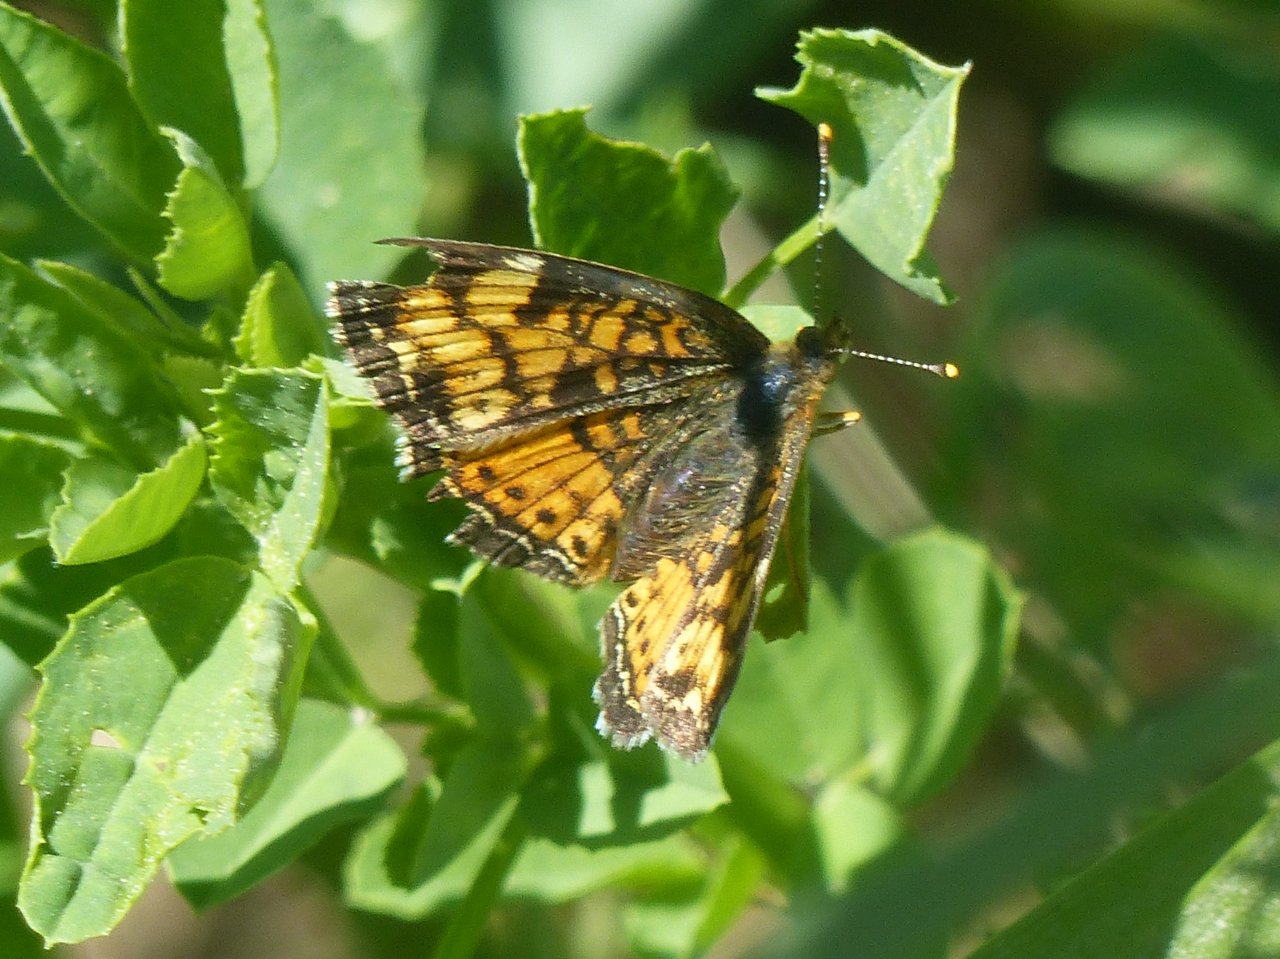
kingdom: Animalia
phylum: Arthropoda
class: Insecta
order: Lepidoptera
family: Nymphalidae
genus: Phyciodes
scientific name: Phyciodes
